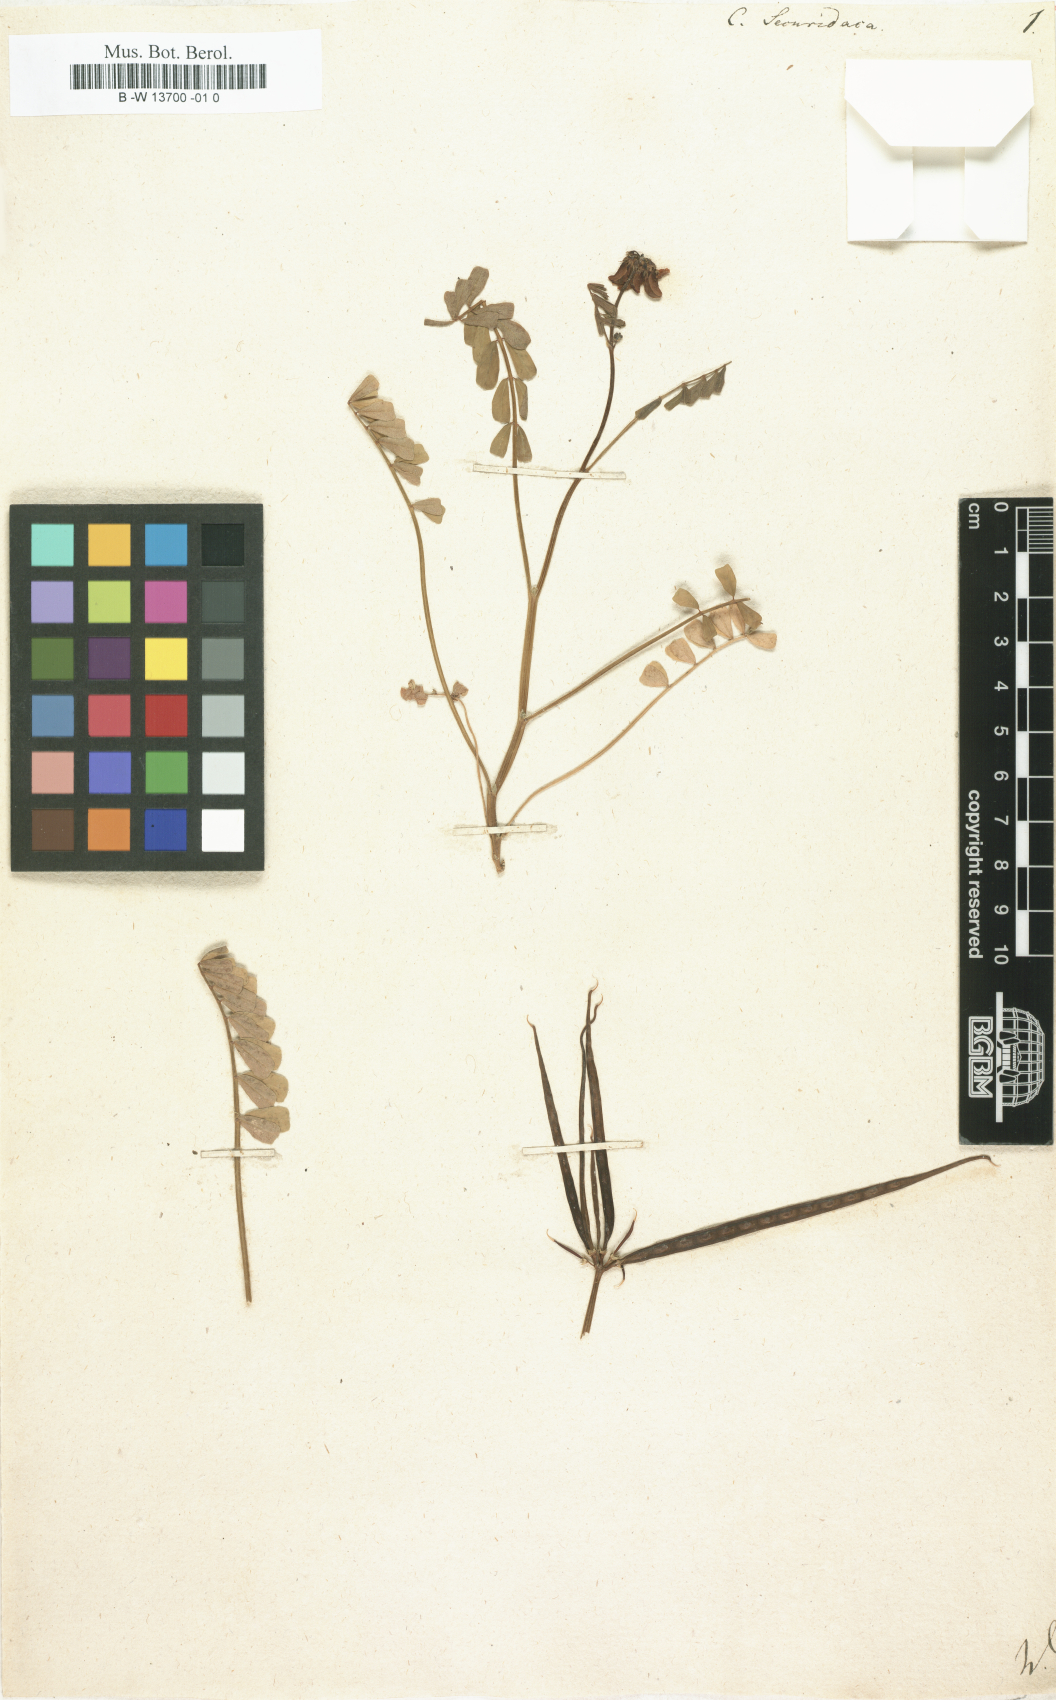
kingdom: Plantae
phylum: Tracheophyta
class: Magnoliopsida
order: Fabales
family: Fabaceae
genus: Coronilla
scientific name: Coronilla securidaca
